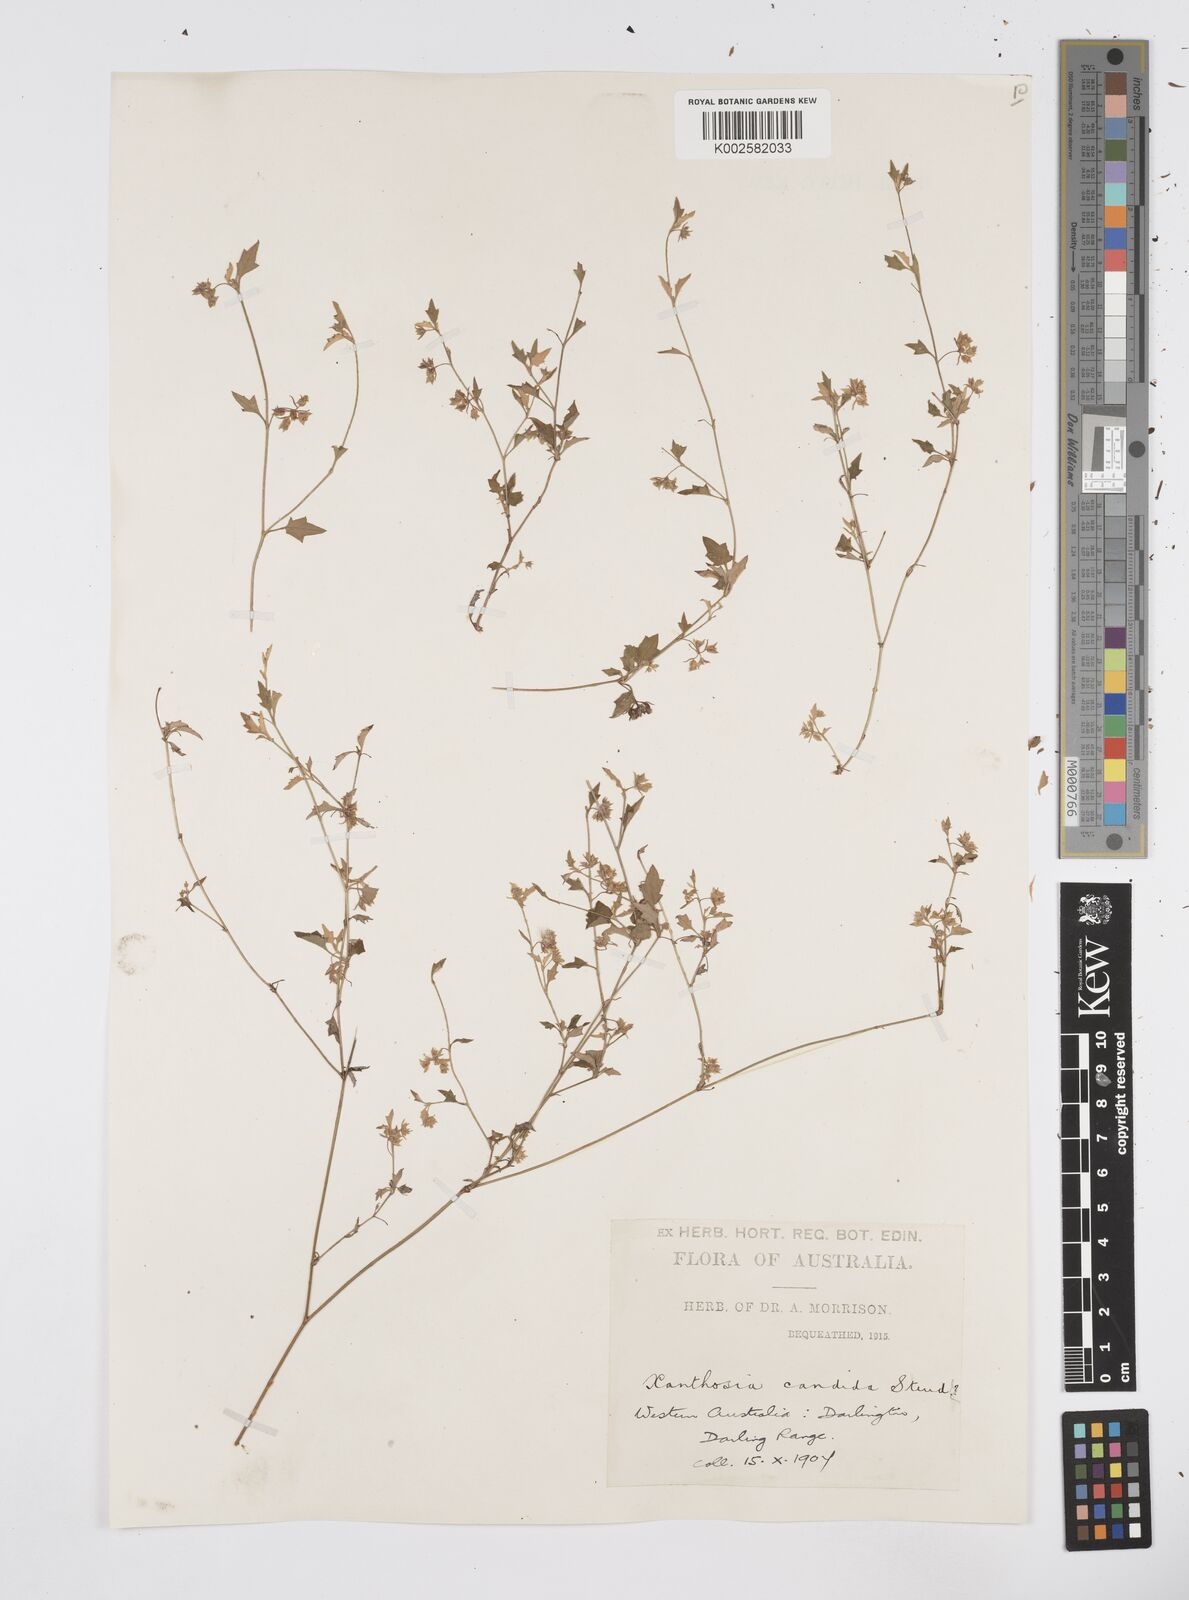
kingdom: Plantae
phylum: Tracheophyta
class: Magnoliopsida
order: Apiales
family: Apiaceae
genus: Xanthosia
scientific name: Xanthosia candida
